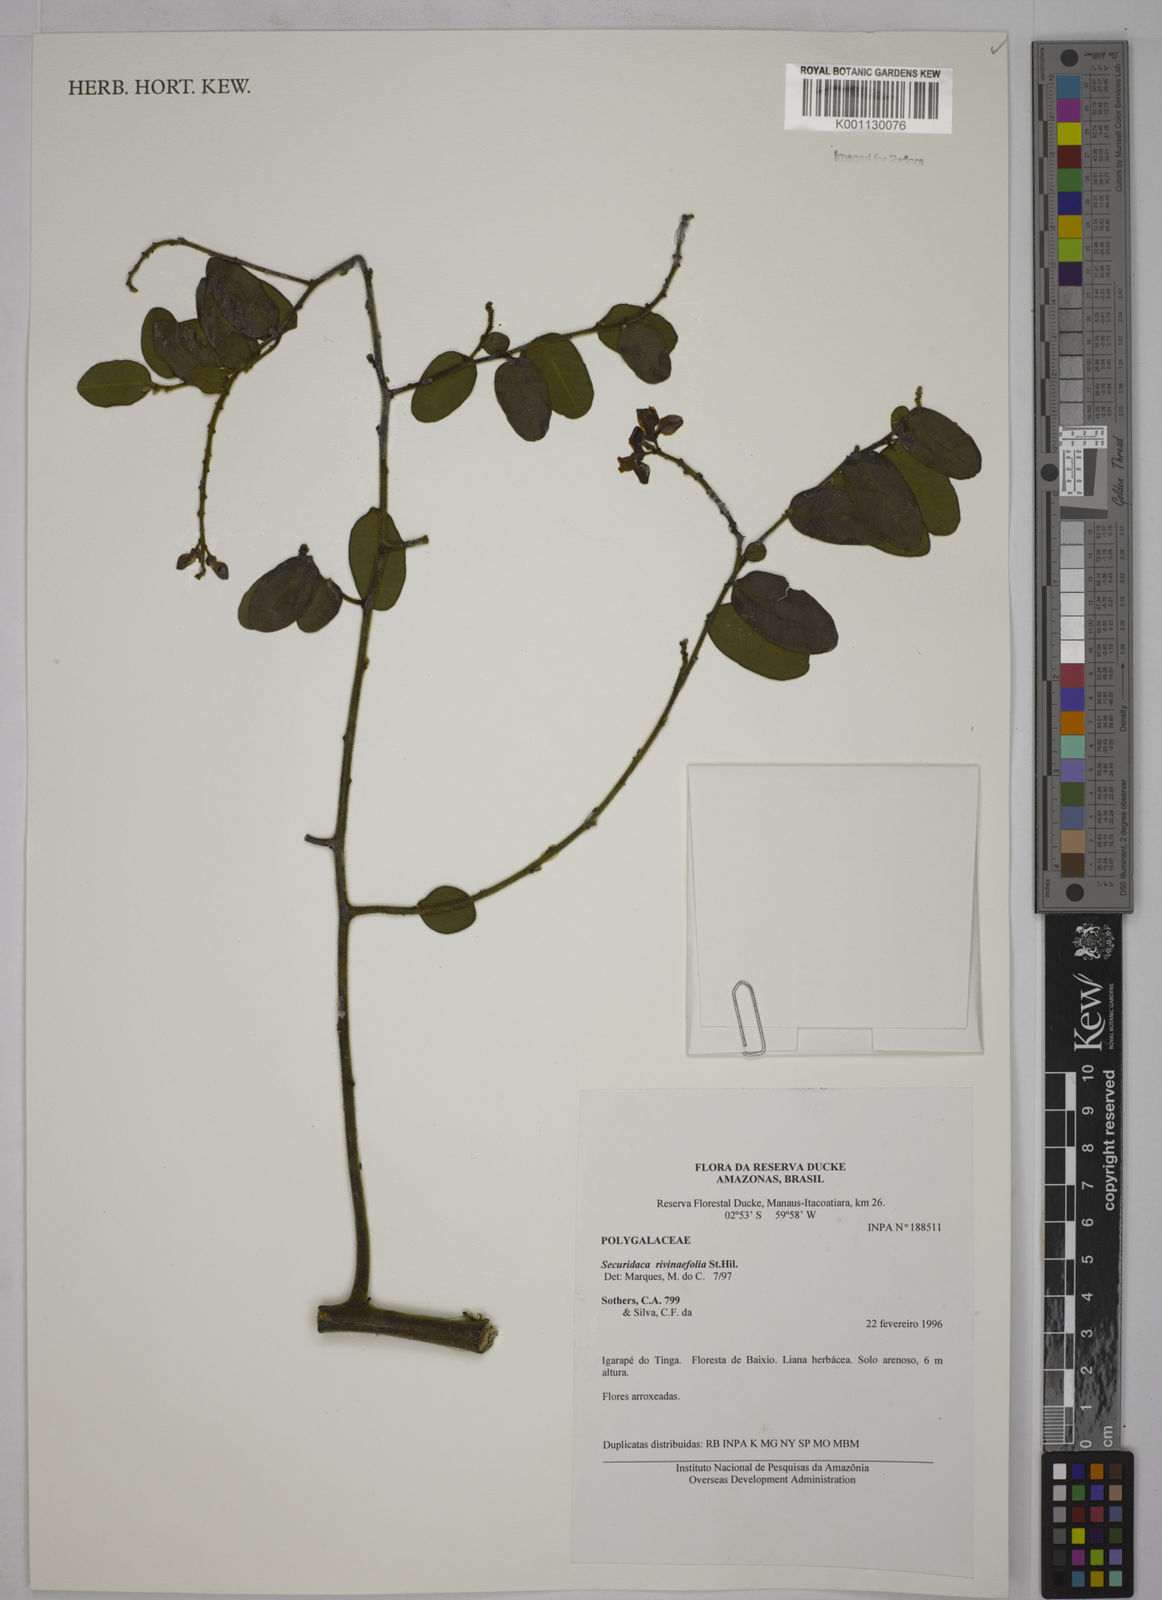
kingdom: Plantae
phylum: Tracheophyta
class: Magnoliopsida
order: Fabales
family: Polygalaceae
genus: Securidaca
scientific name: Securidaca rivinifolia
